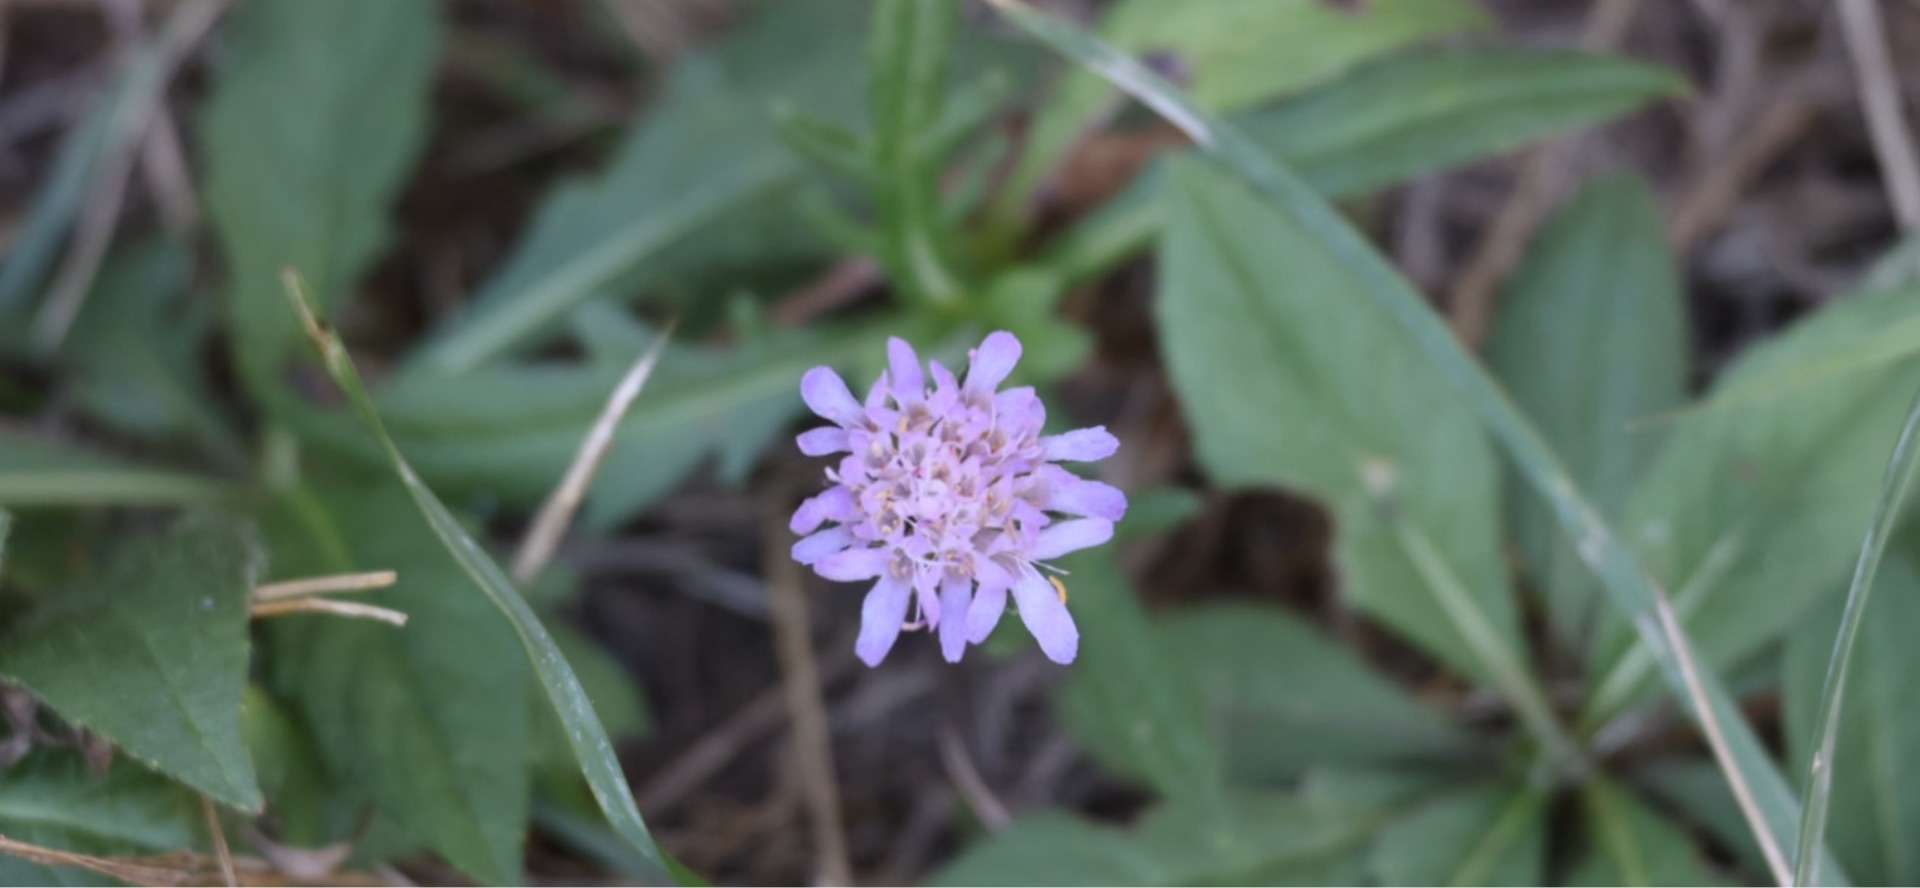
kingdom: Plantae
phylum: Tracheophyta
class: Magnoliopsida
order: Dipsacales
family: Caprifoliaceae
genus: Knautia
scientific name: Knautia arvensis
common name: Blåhat
